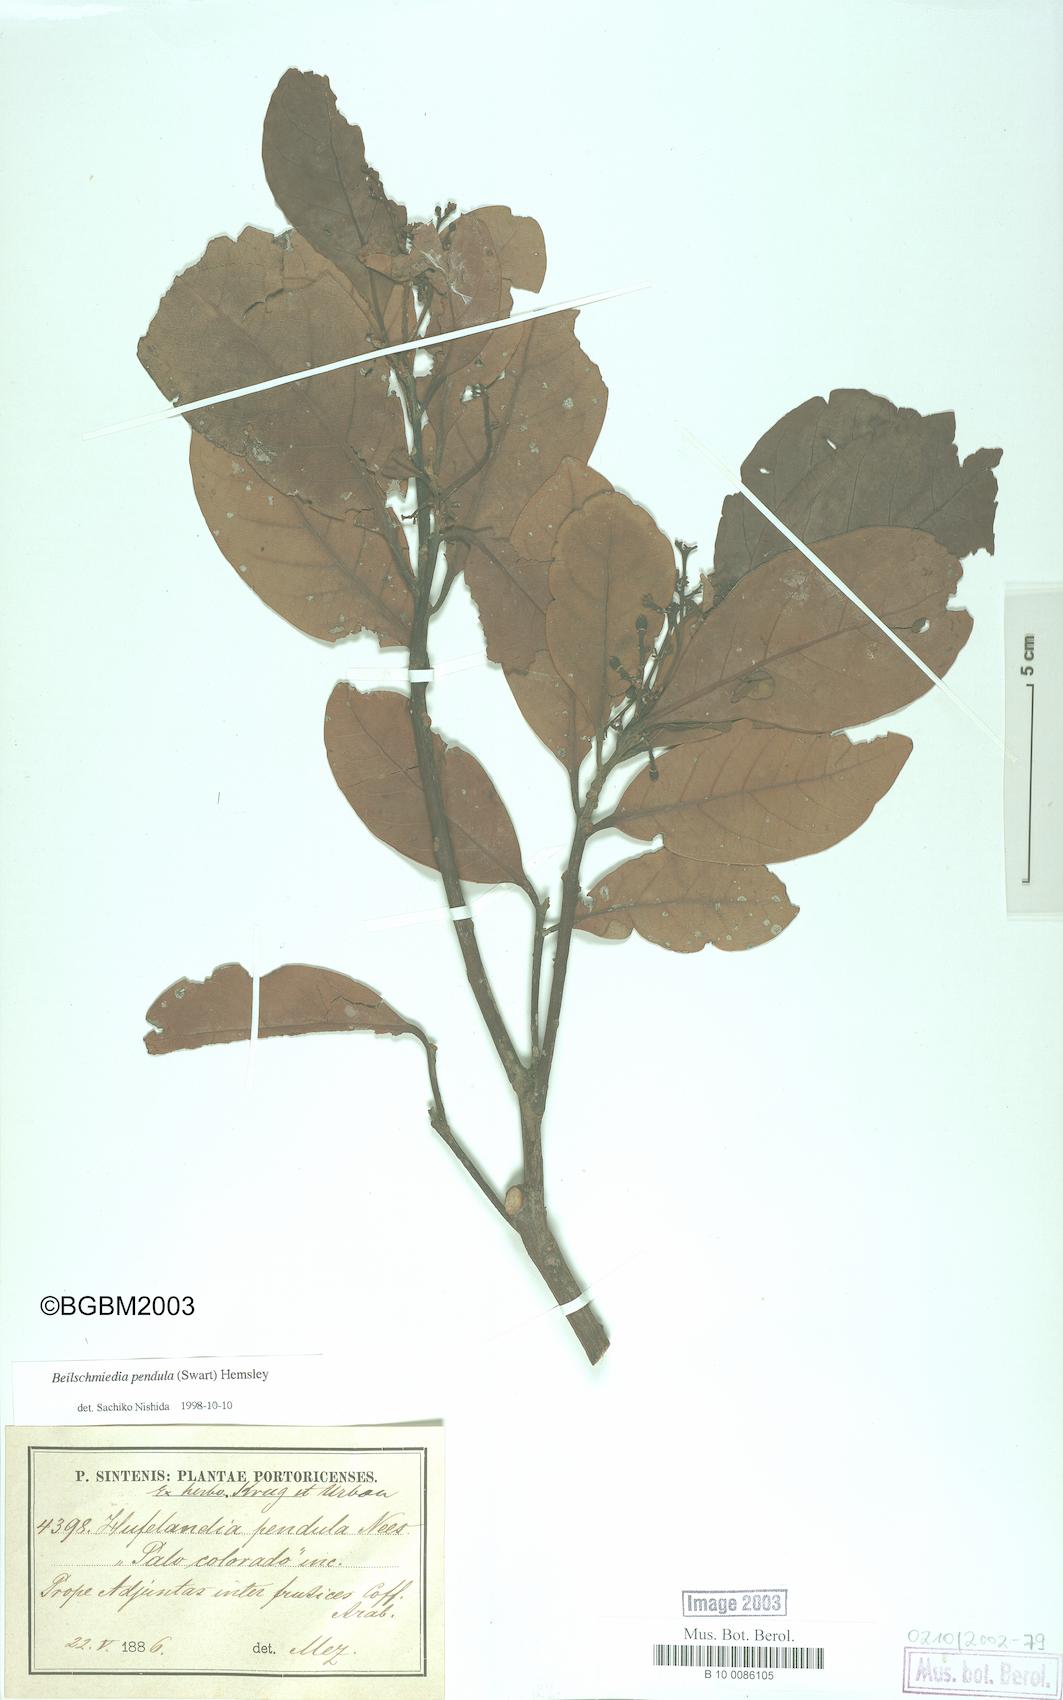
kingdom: Plantae
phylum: Tracheophyta
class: Magnoliopsida
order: Laurales
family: Lauraceae
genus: Beilschmiedia
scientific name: Beilschmiedia pendula
